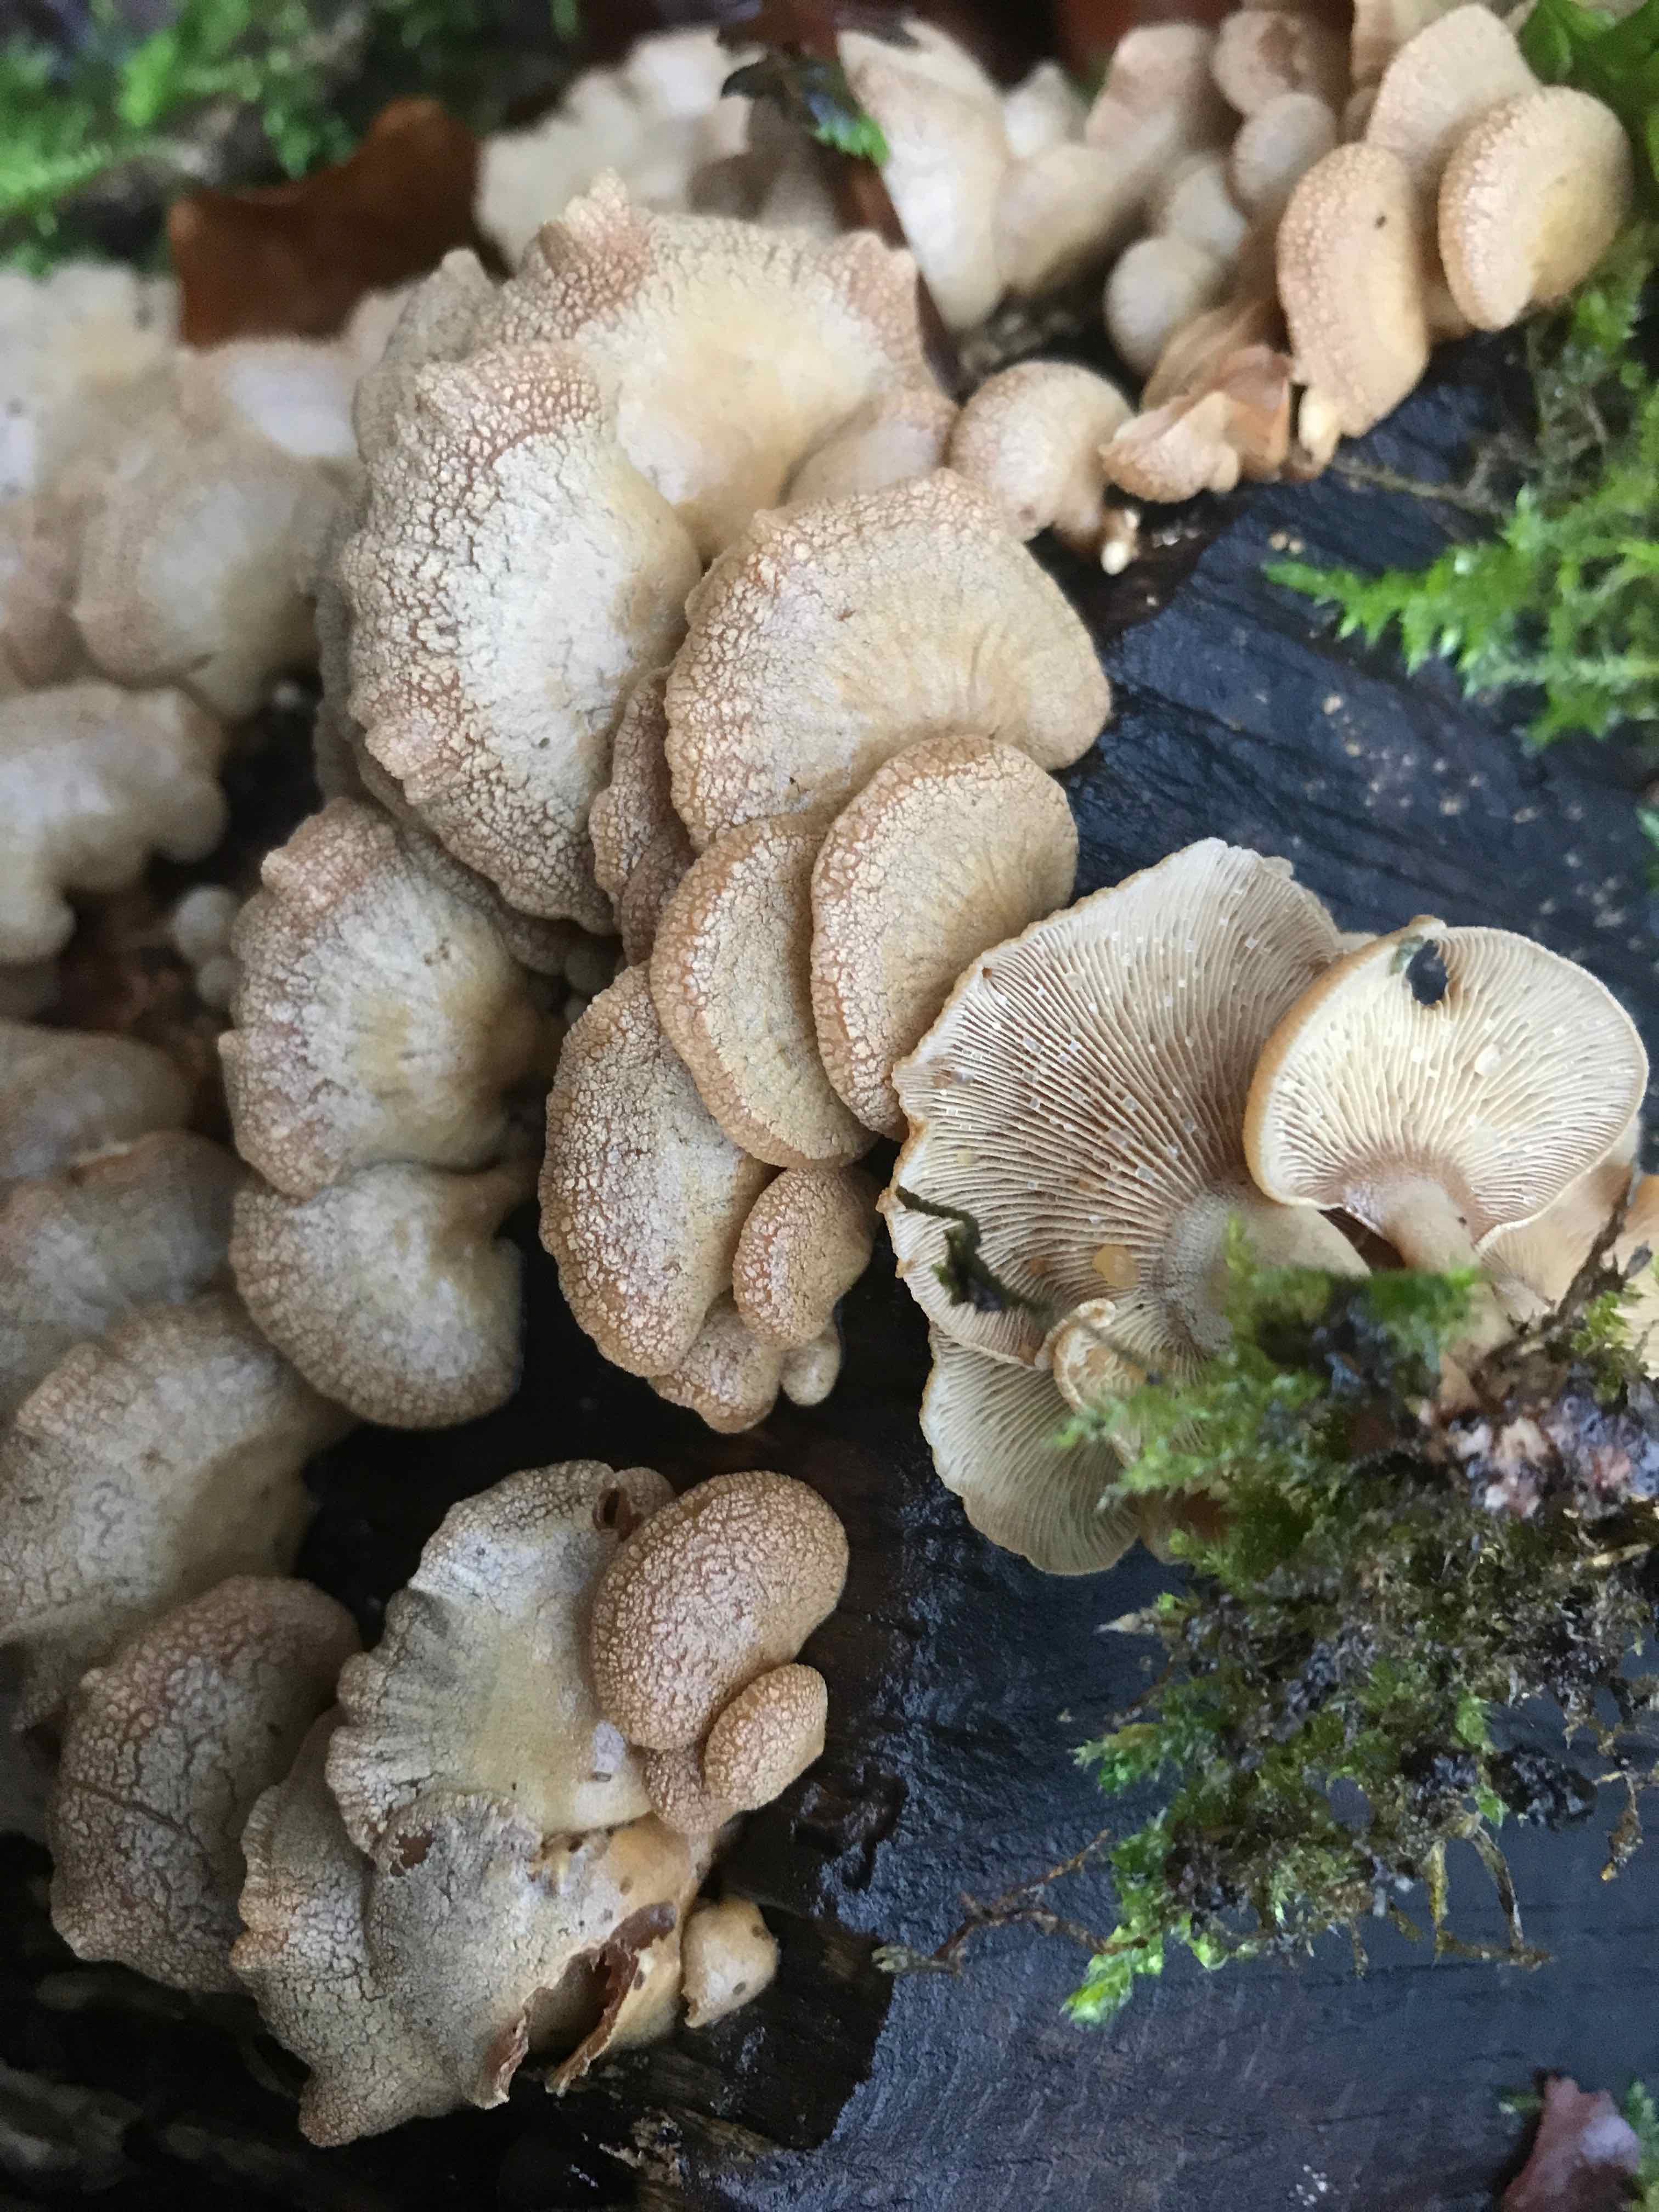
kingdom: Fungi
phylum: Basidiomycota
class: Agaricomycetes
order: Agaricales
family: Mycenaceae
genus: Panellus
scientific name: Panellus stipticus
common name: kliddet epaulethat
